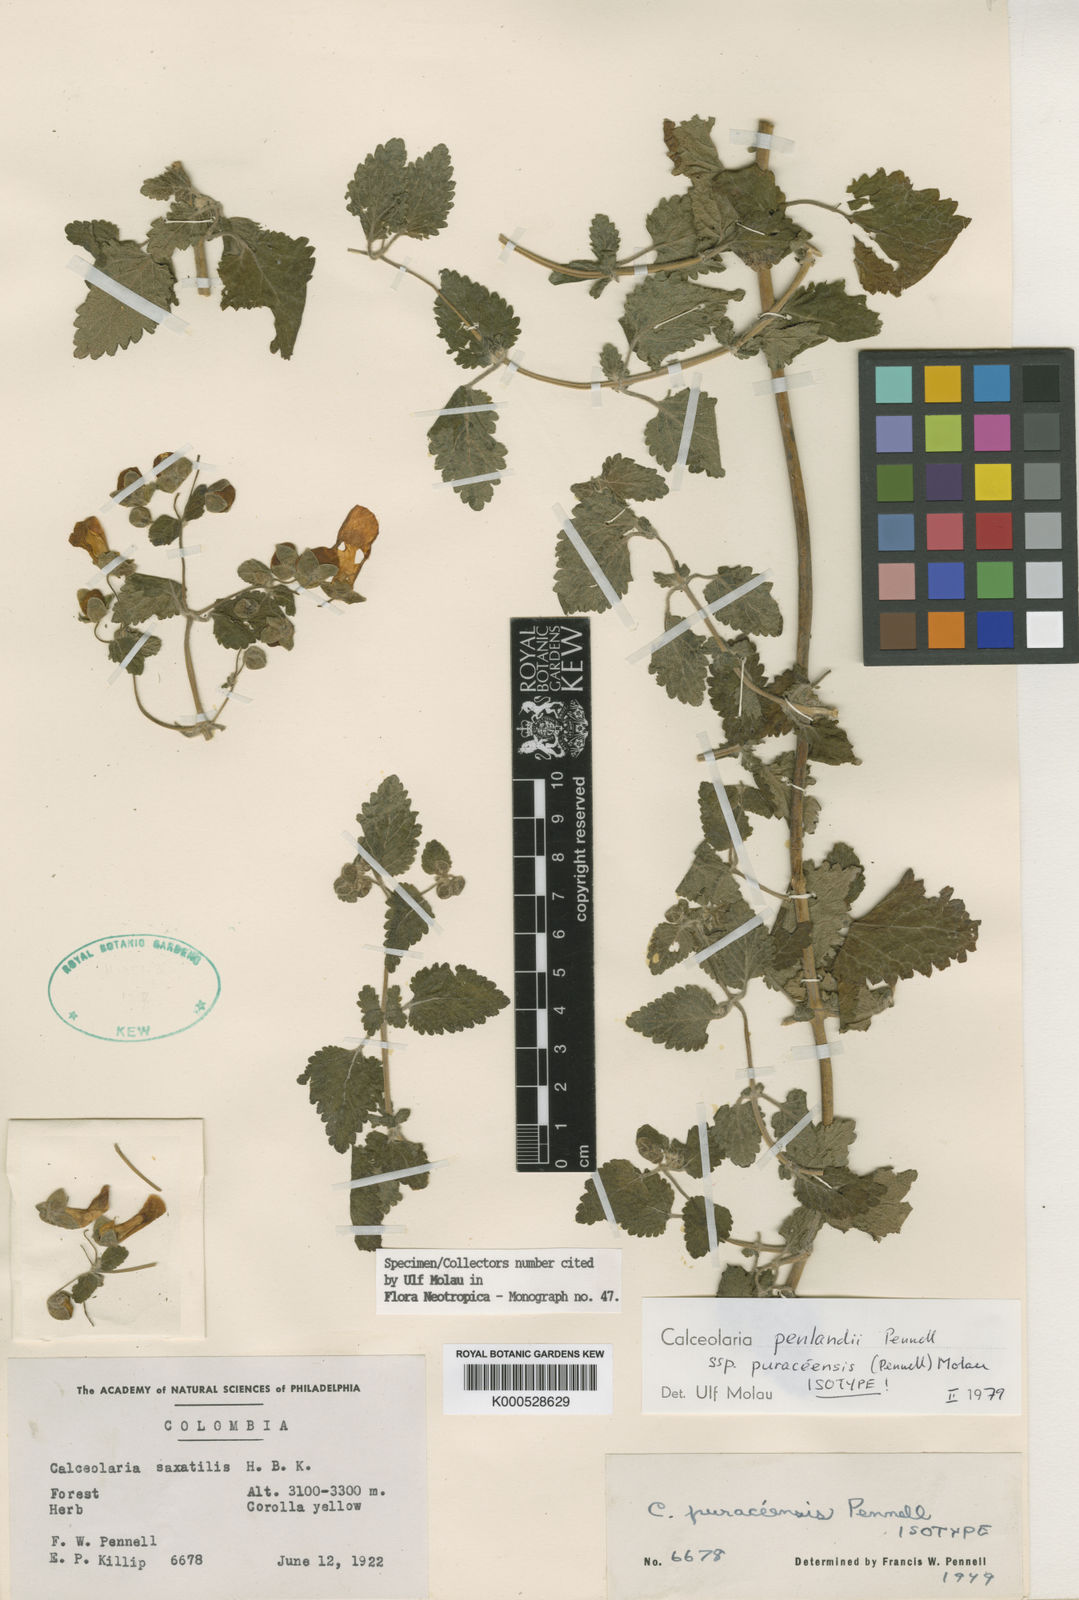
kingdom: Plantae
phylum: Tracheophyta
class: Magnoliopsida
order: Lamiales
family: Calceolariaceae
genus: Calceolaria
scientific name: Calceolaria penlandii
